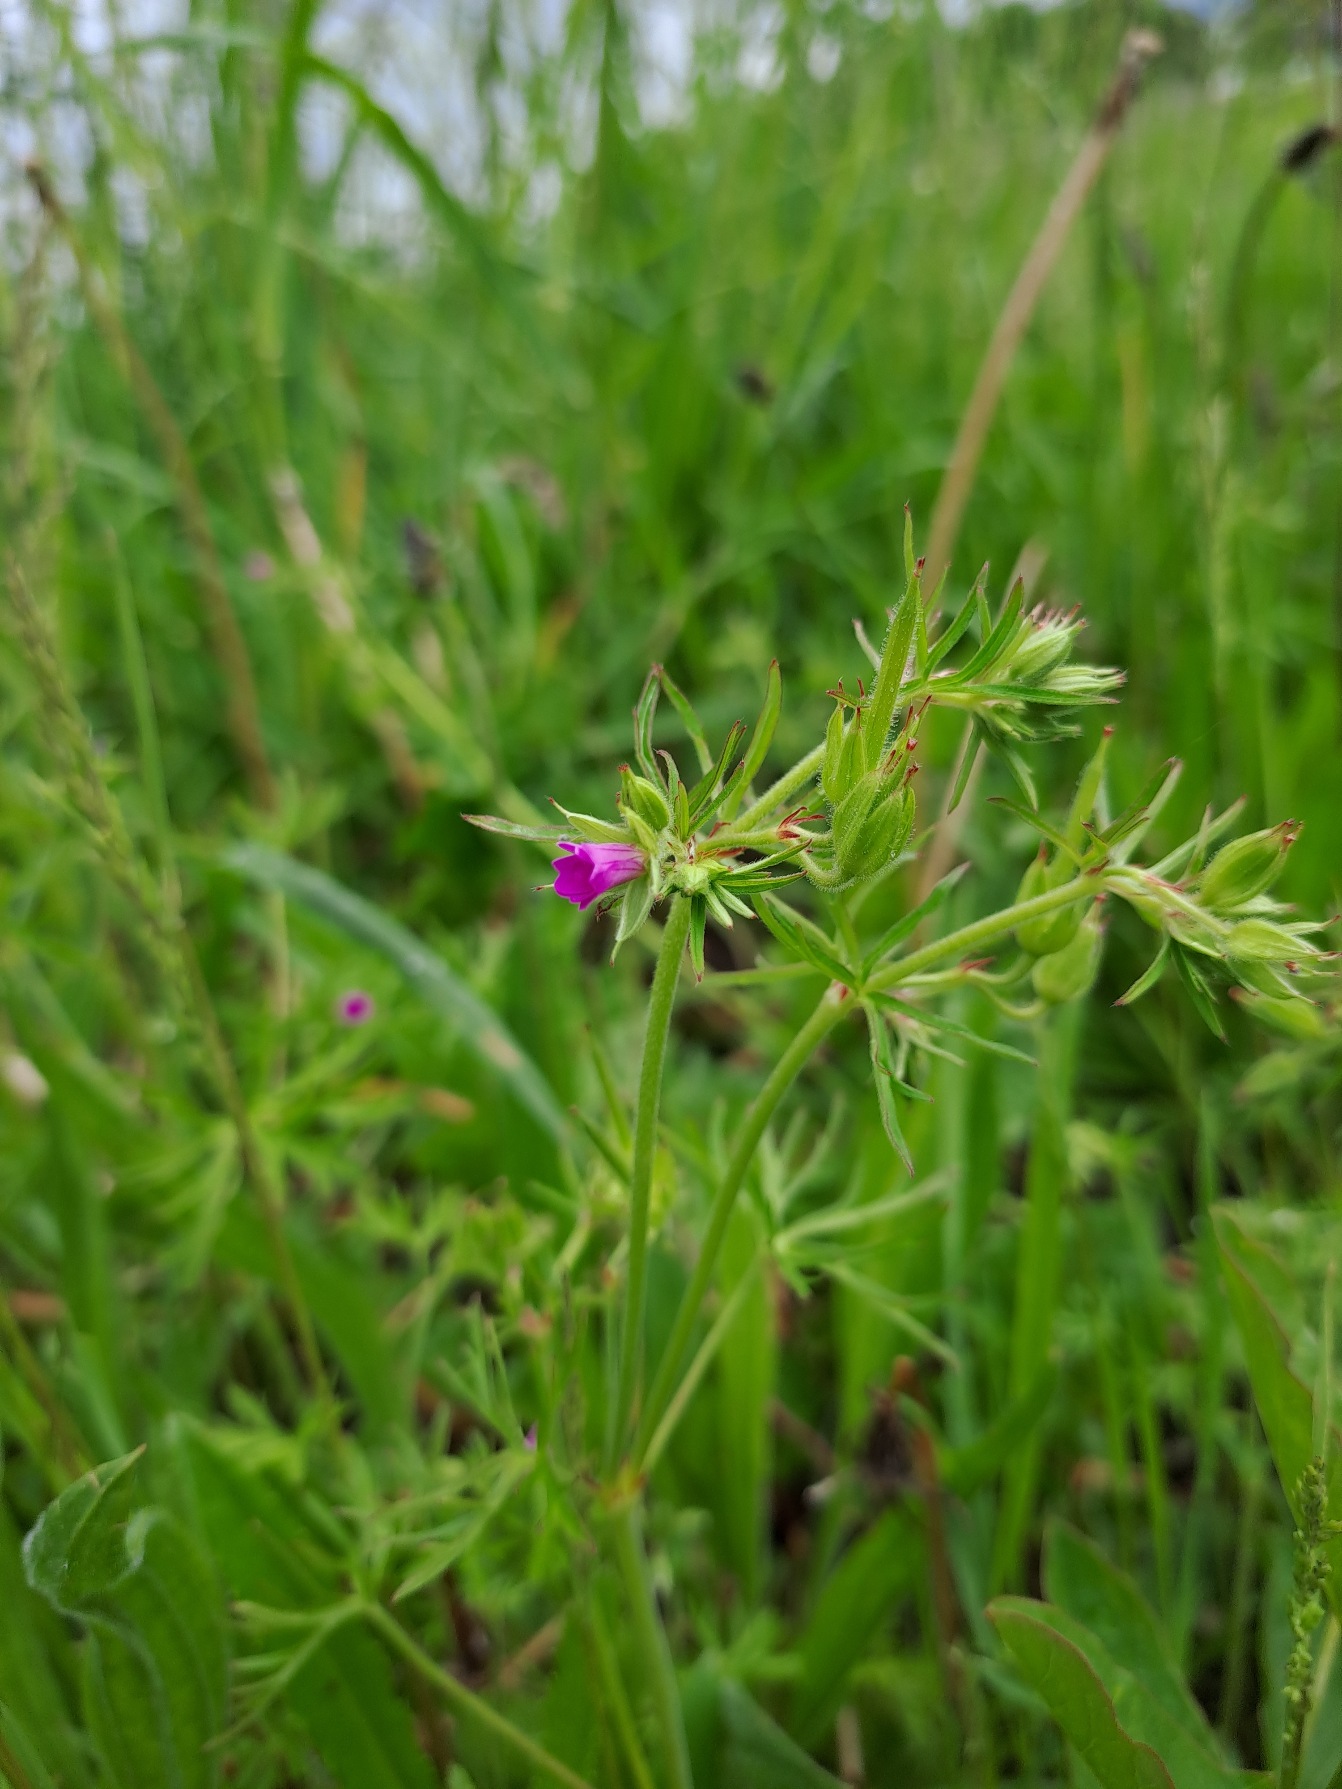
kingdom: Plantae
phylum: Tracheophyta
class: Magnoliopsida
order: Geraniales
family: Geraniaceae
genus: Geranium
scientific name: Geranium dissectum
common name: Kløftet storkenæb
